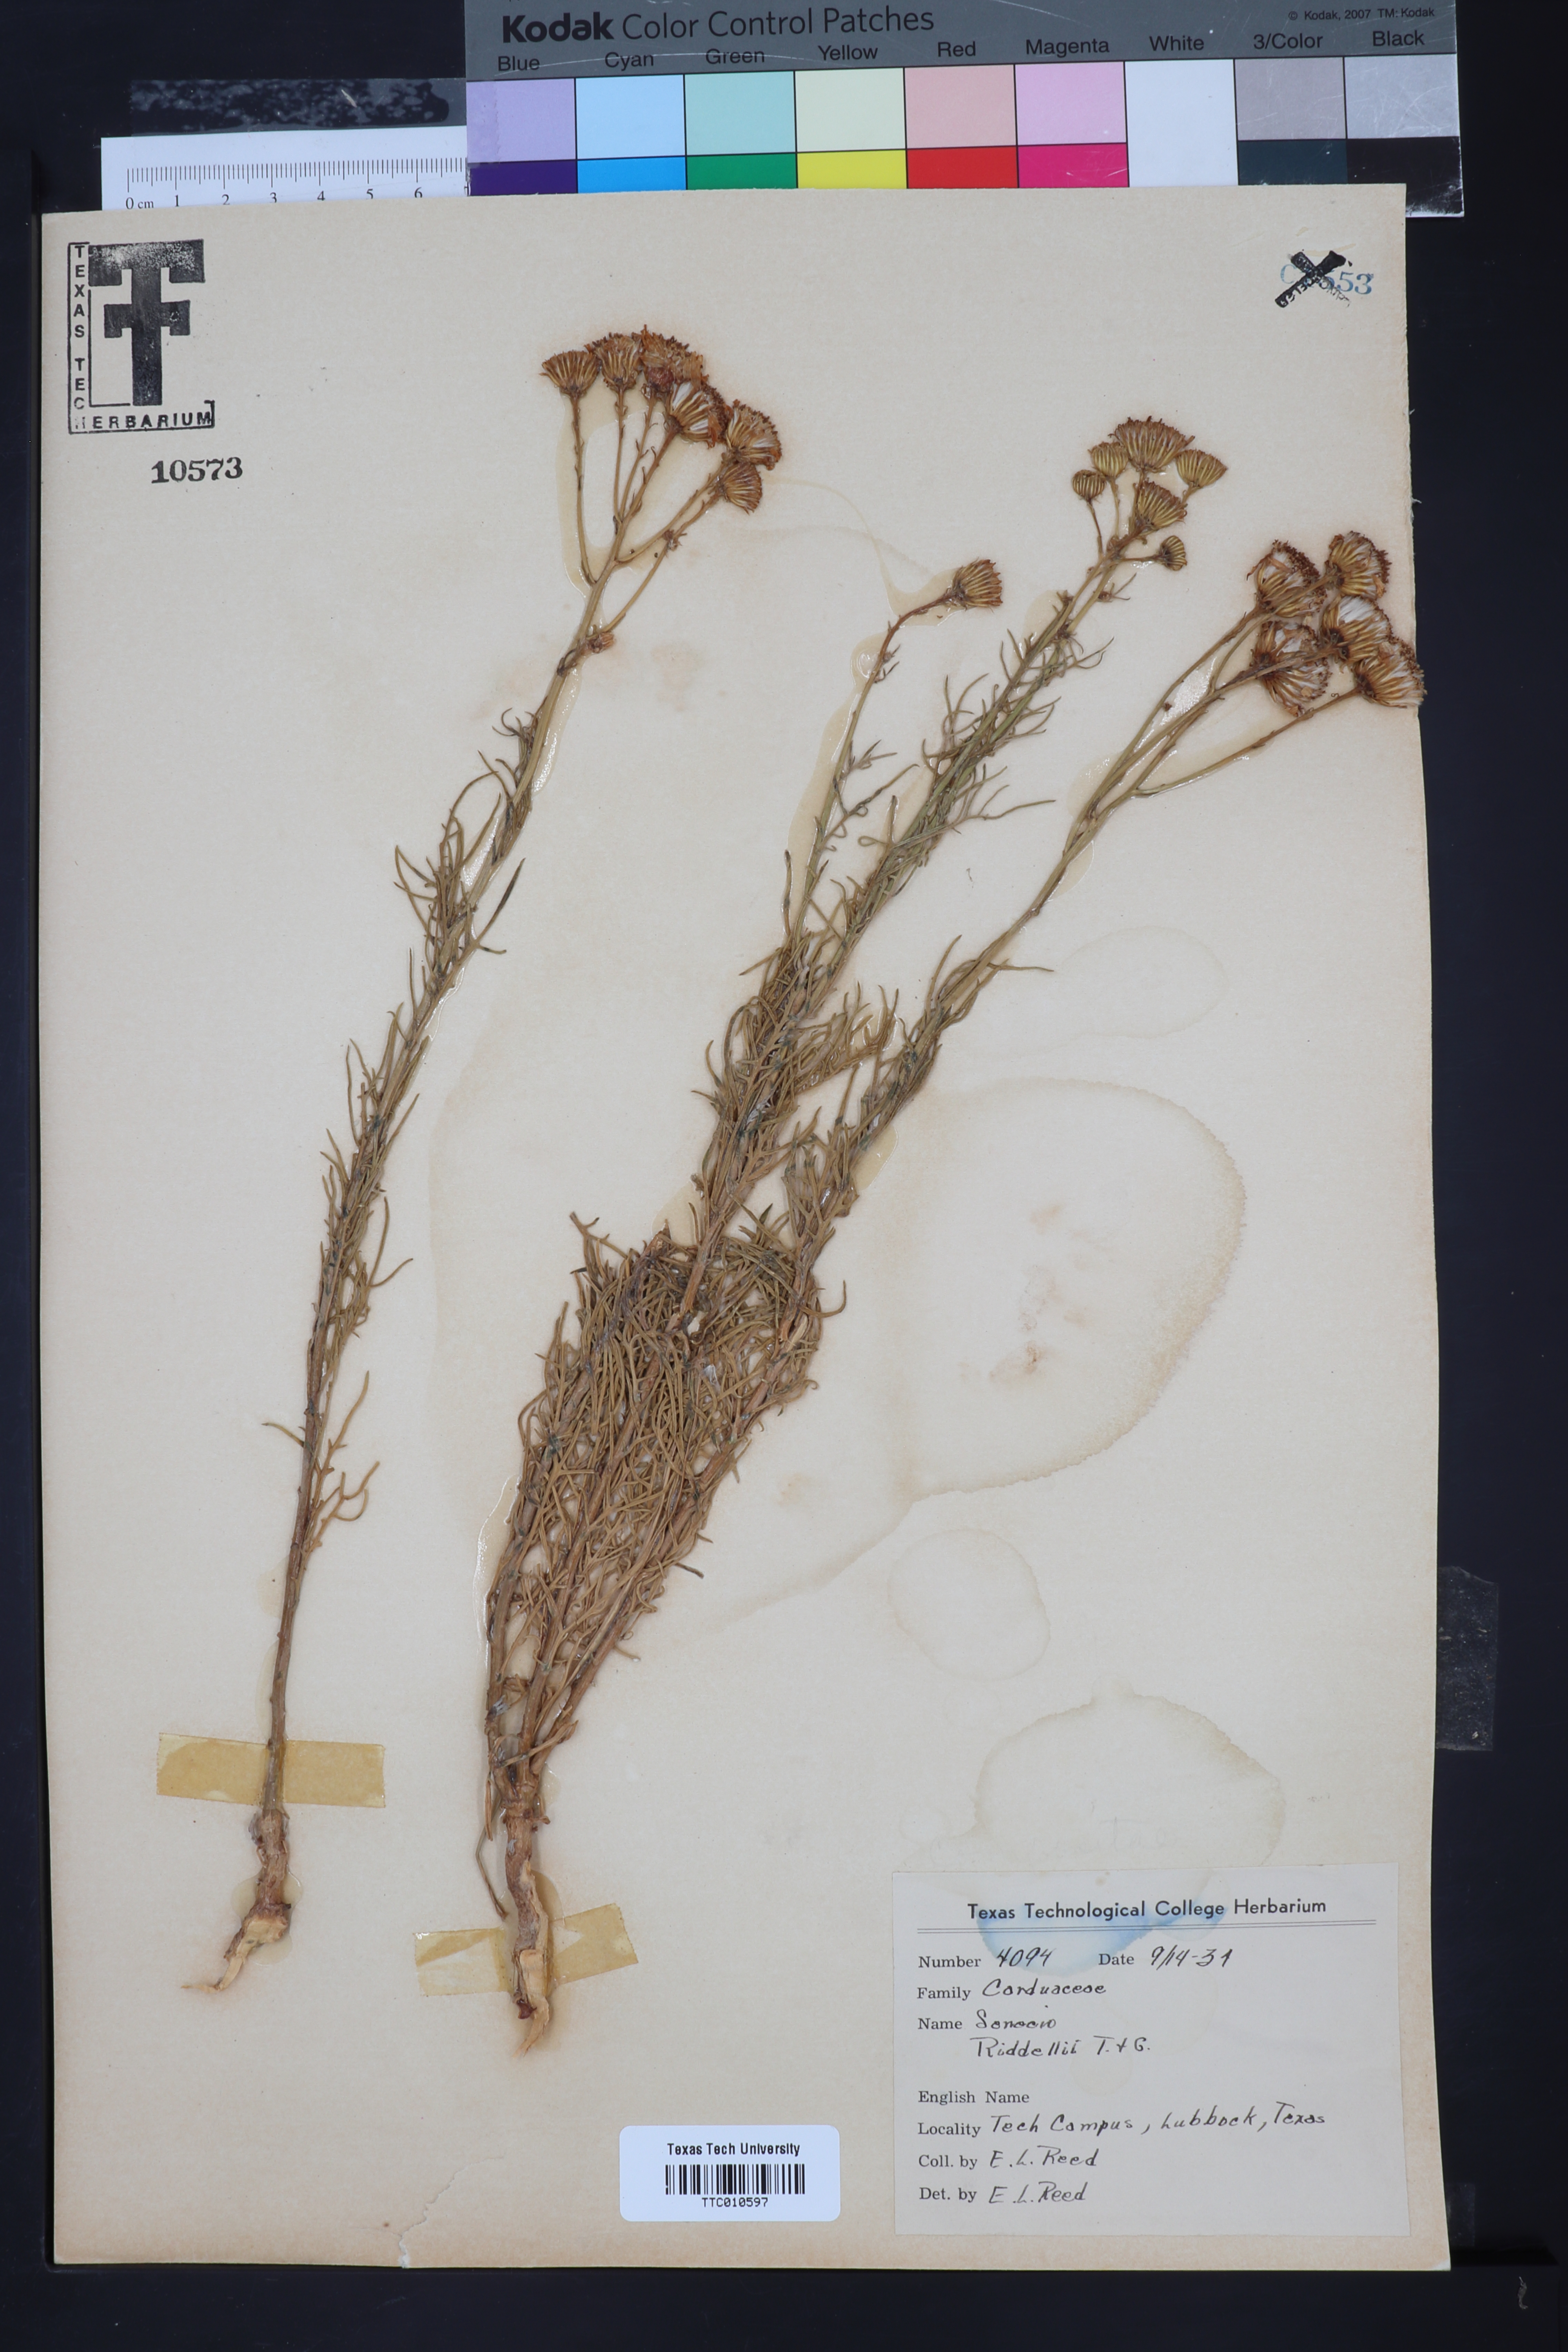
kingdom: Plantae
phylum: Tracheophyta
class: Magnoliopsida
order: Asterales
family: Asteraceae
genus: Senecio
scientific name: Senecio riddellii
